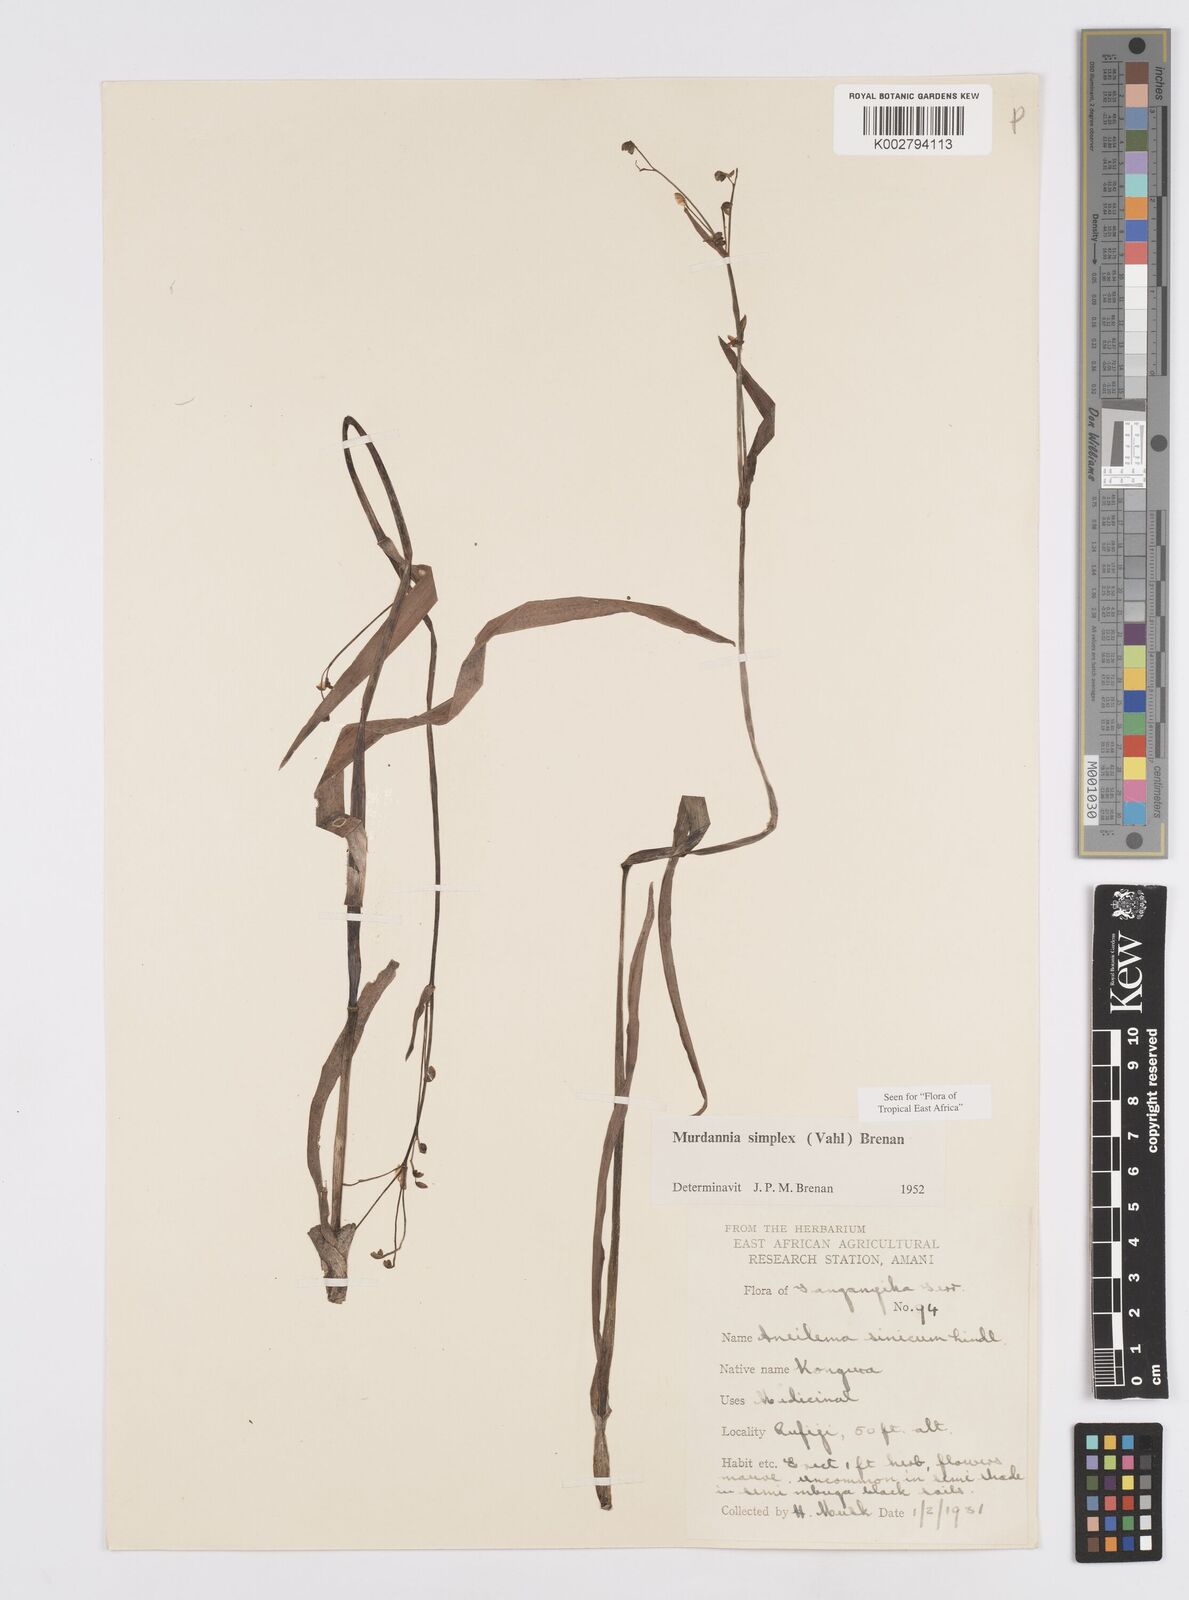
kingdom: Plantae
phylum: Tracheophyta
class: Liliopsida
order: Commelinales
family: Commelinaceae
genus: Murdannia
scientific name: Murdannia simplex
